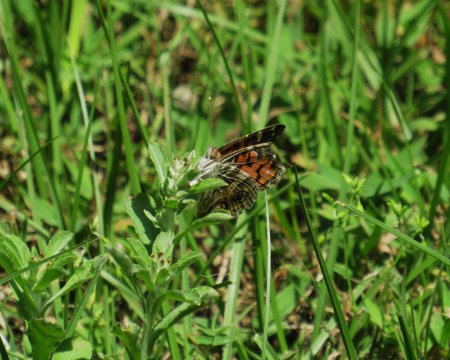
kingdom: Animalia
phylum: Arthropoda
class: Insecta
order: Lepidoptera
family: Nymphalidae
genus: Vanessa
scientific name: Vanessa virginiensis
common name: American Lady
